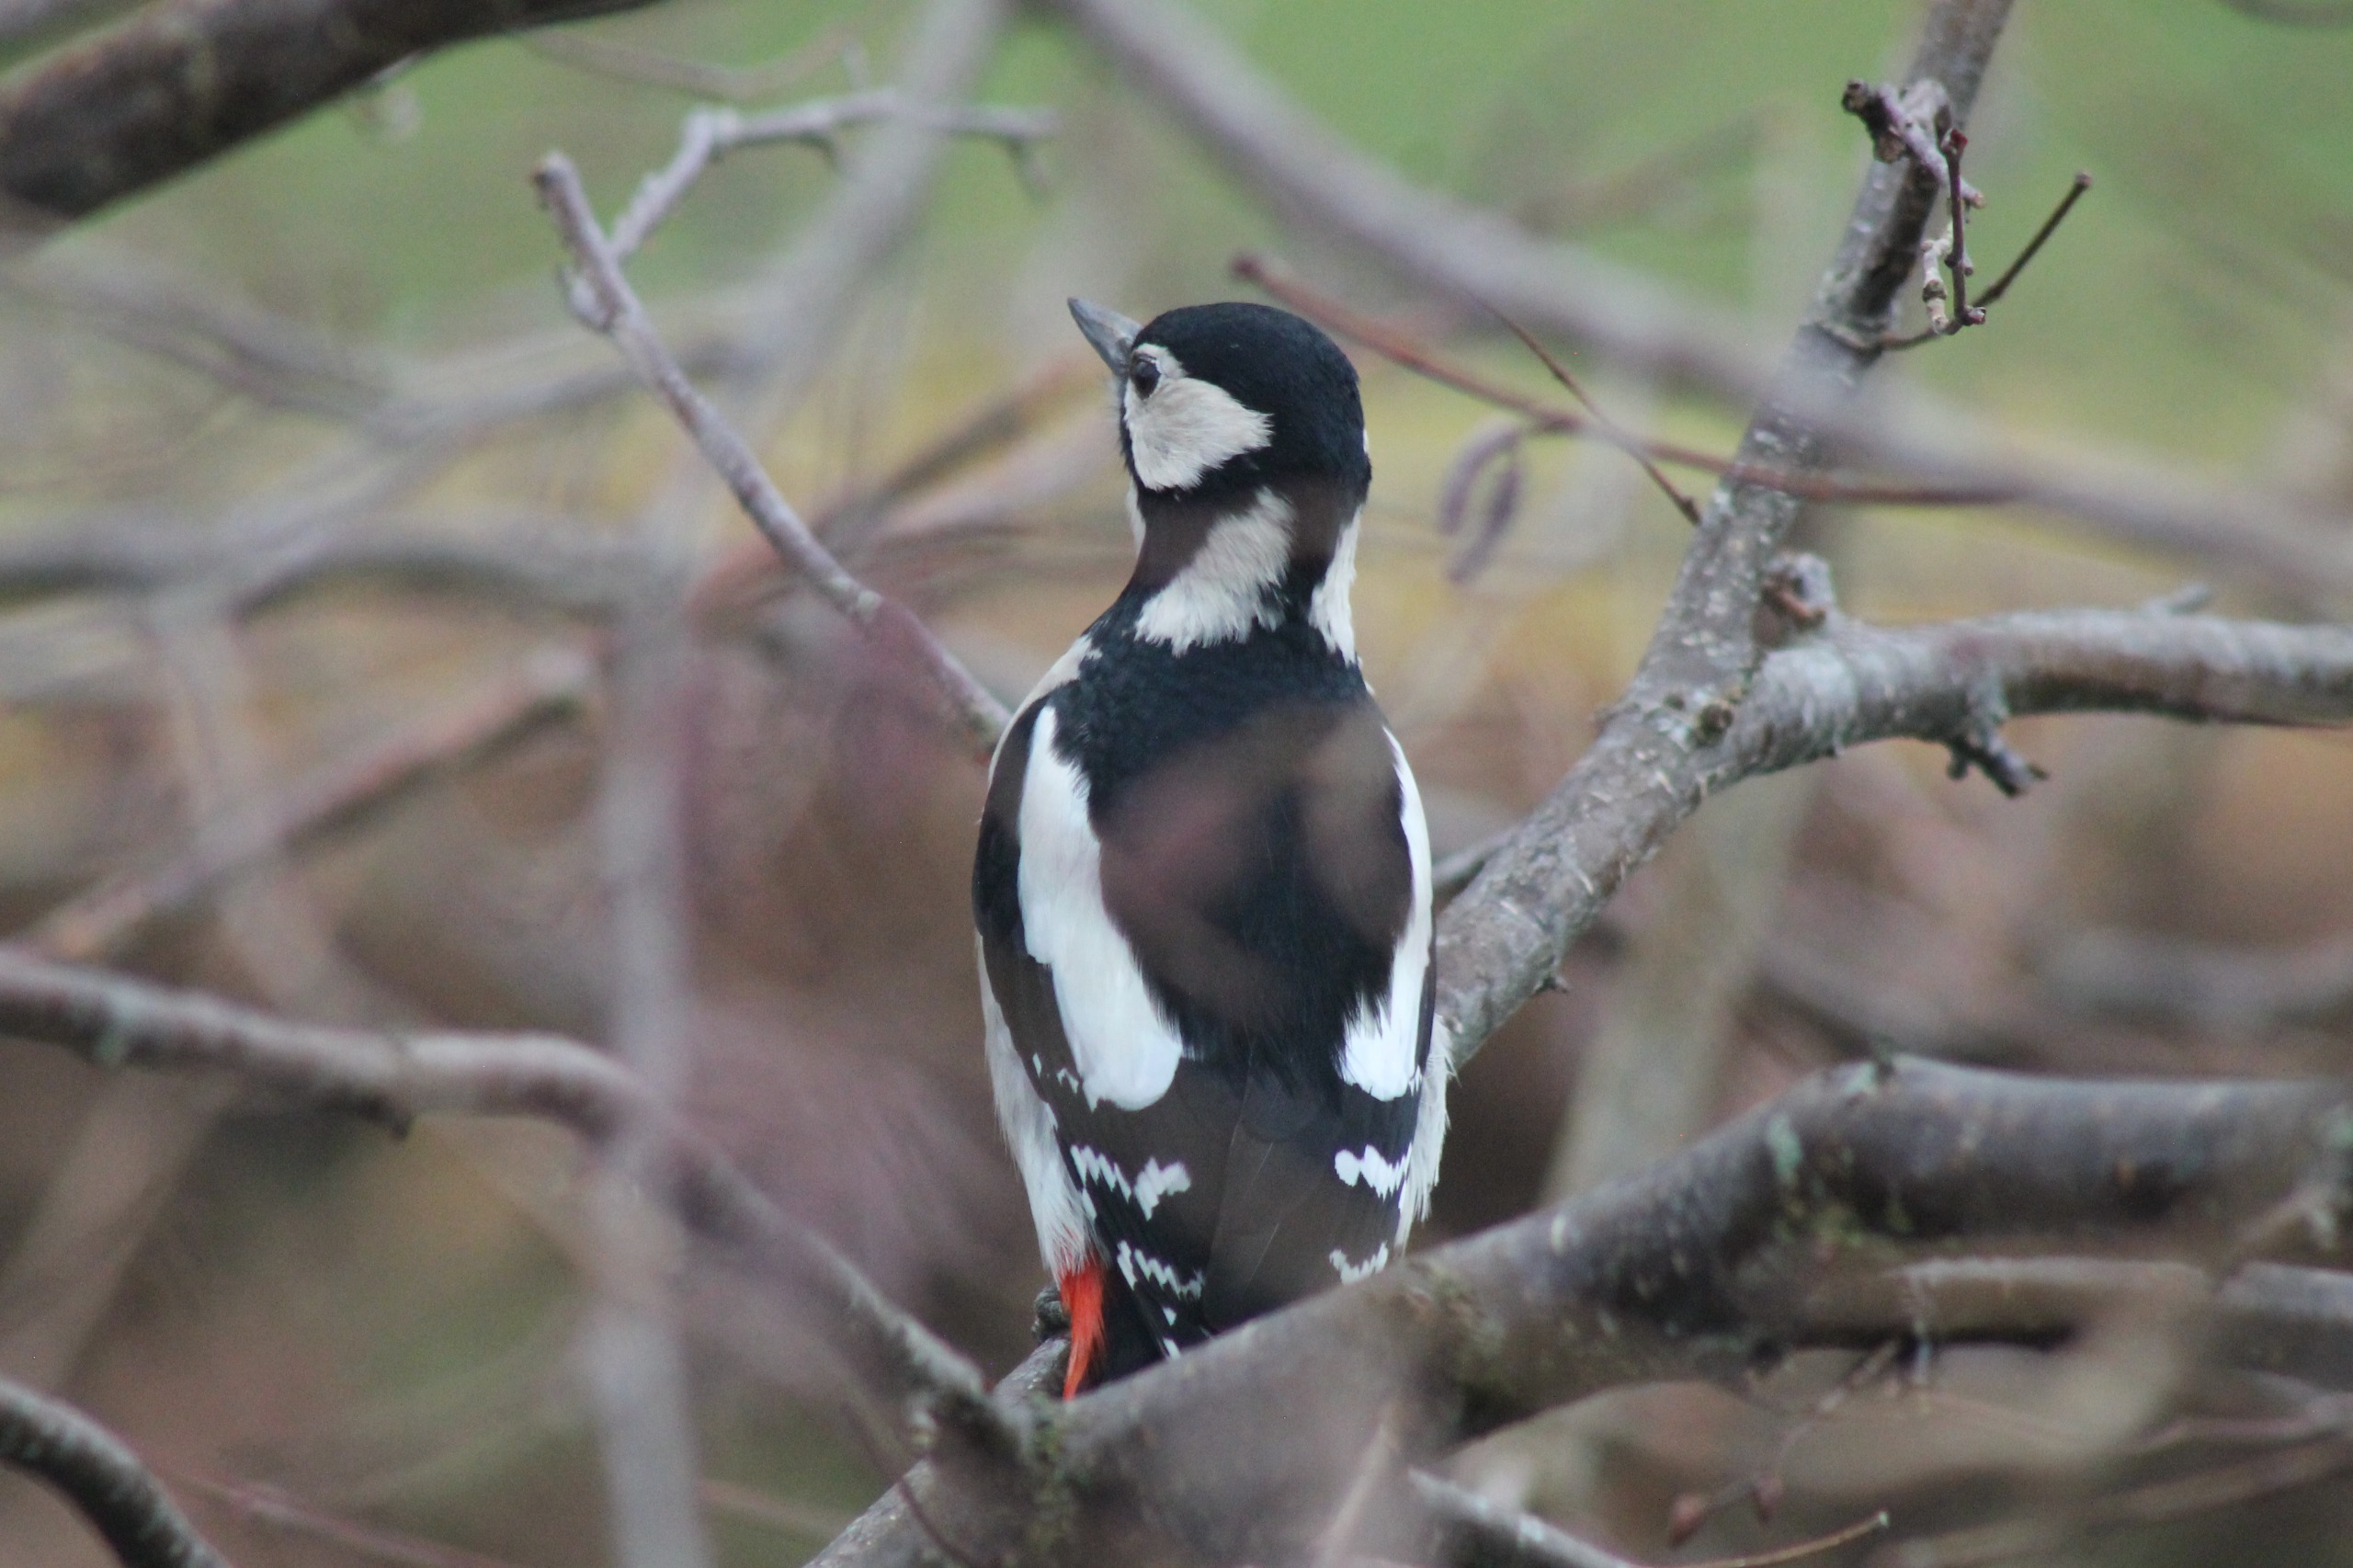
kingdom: Animalia
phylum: Chordata
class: Aves
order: Piciformes
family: Picidae
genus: Dendrocopos
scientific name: Dendrocopos major
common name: Stor flagspætte
